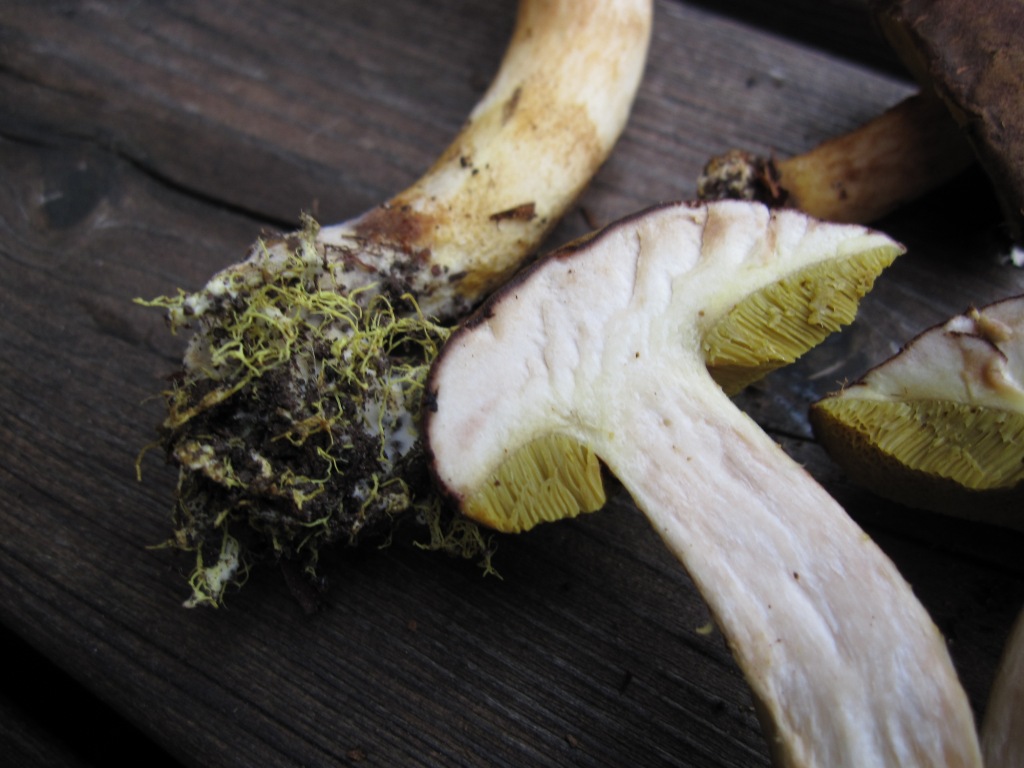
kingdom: Fungi
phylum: Basidiomycota
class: Agaricomycetes
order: Boletales
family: Boletaceae
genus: Xerocomus
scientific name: Xerocomus ferrugineus
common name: vaskeskinds-rørhat
